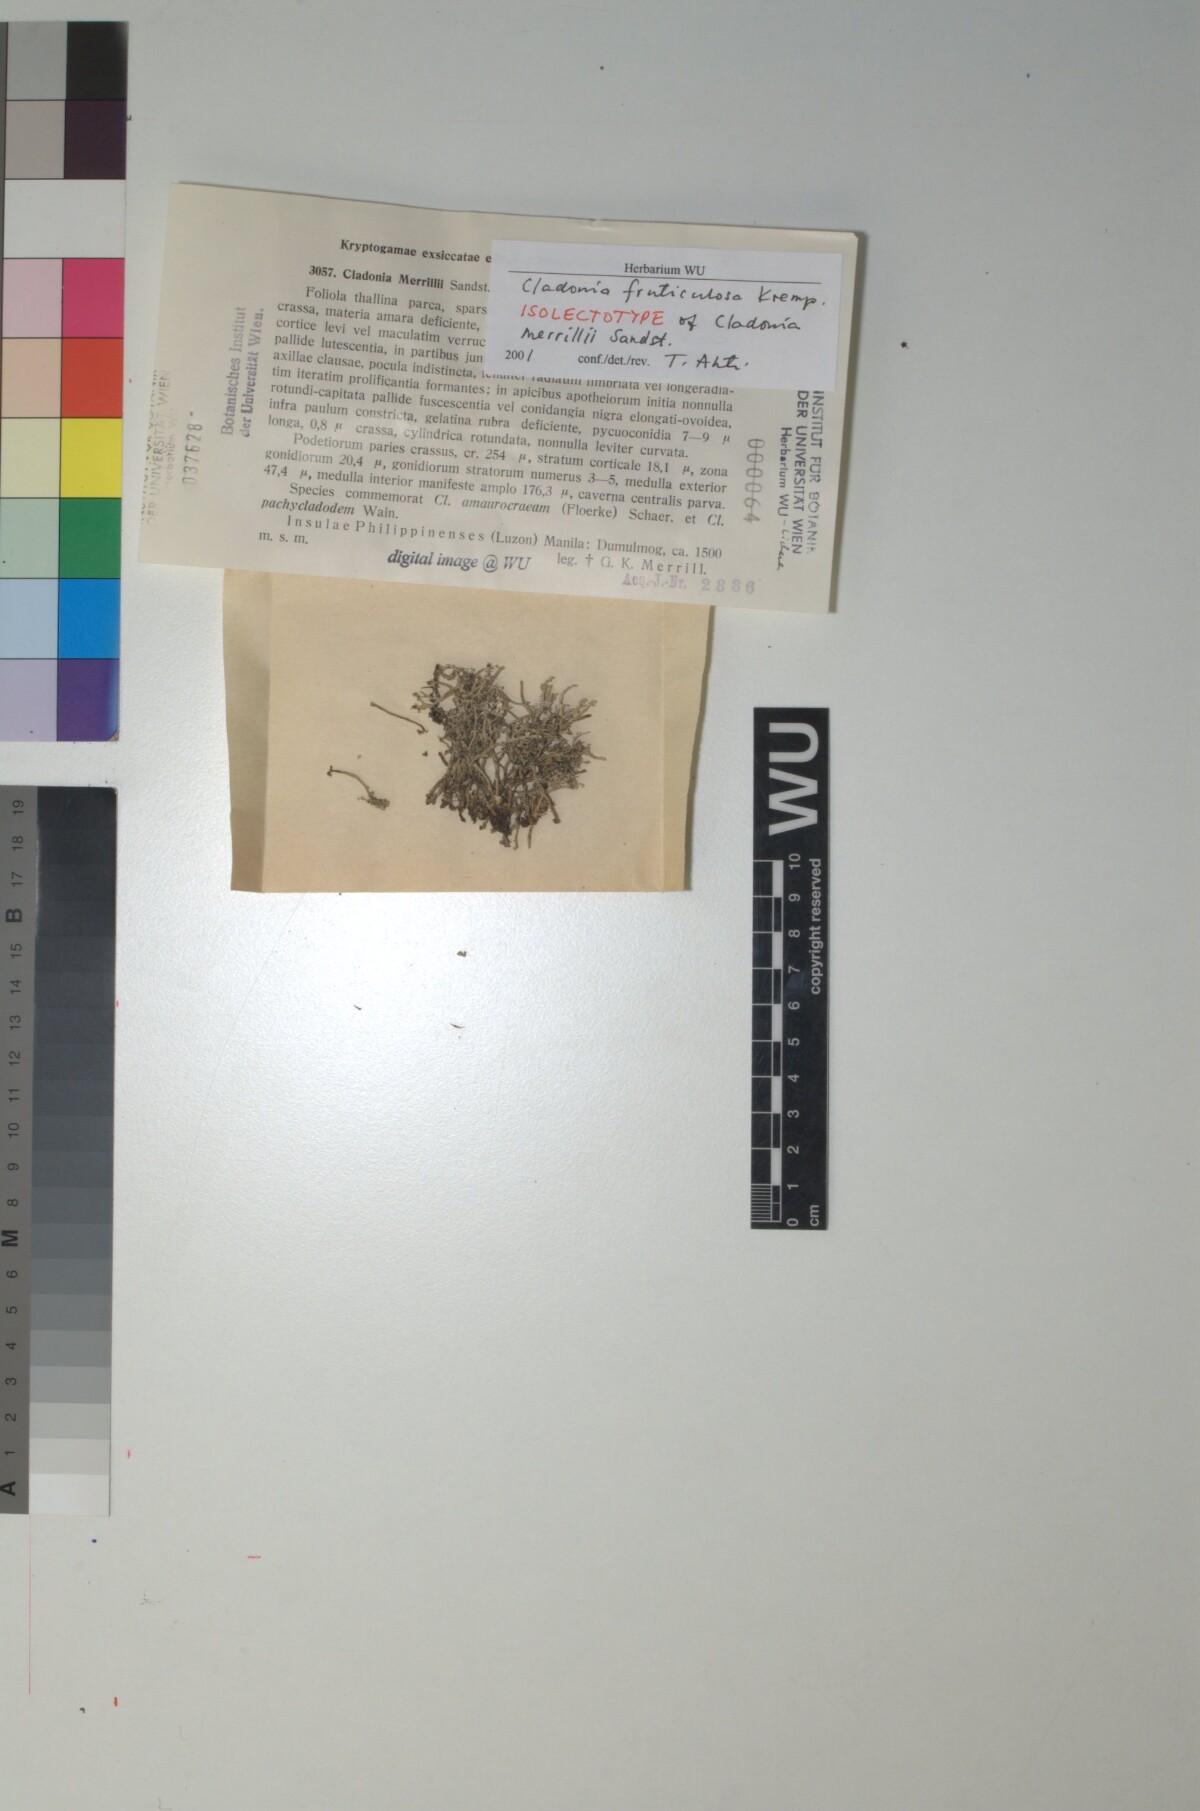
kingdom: Fungi
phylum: Ascomycota
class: Lecanoromycetes
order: Lecanorales
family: Cladoniaceae
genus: Cladonia
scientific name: Cladonia fruticulosa
